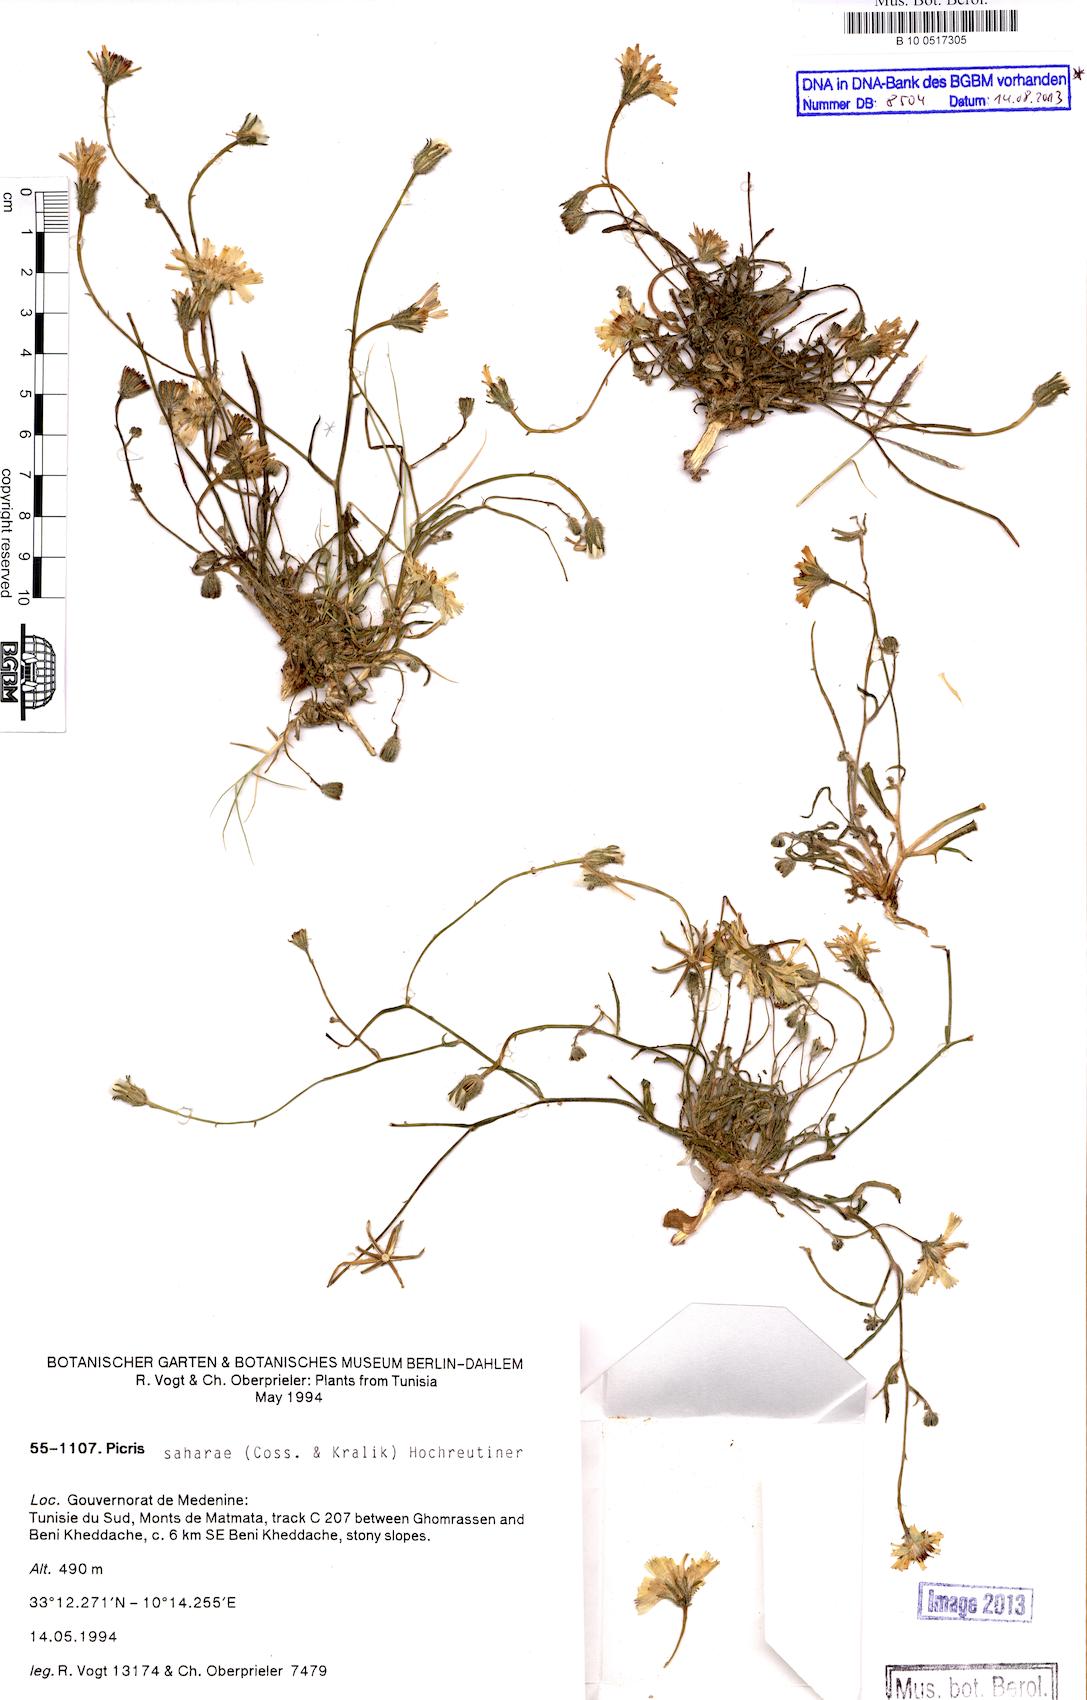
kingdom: Plantae
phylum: Tracheophyta
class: Magnoliopsida
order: Asterales
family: Asteraceae
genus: Picris
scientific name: Picris asplenioides
